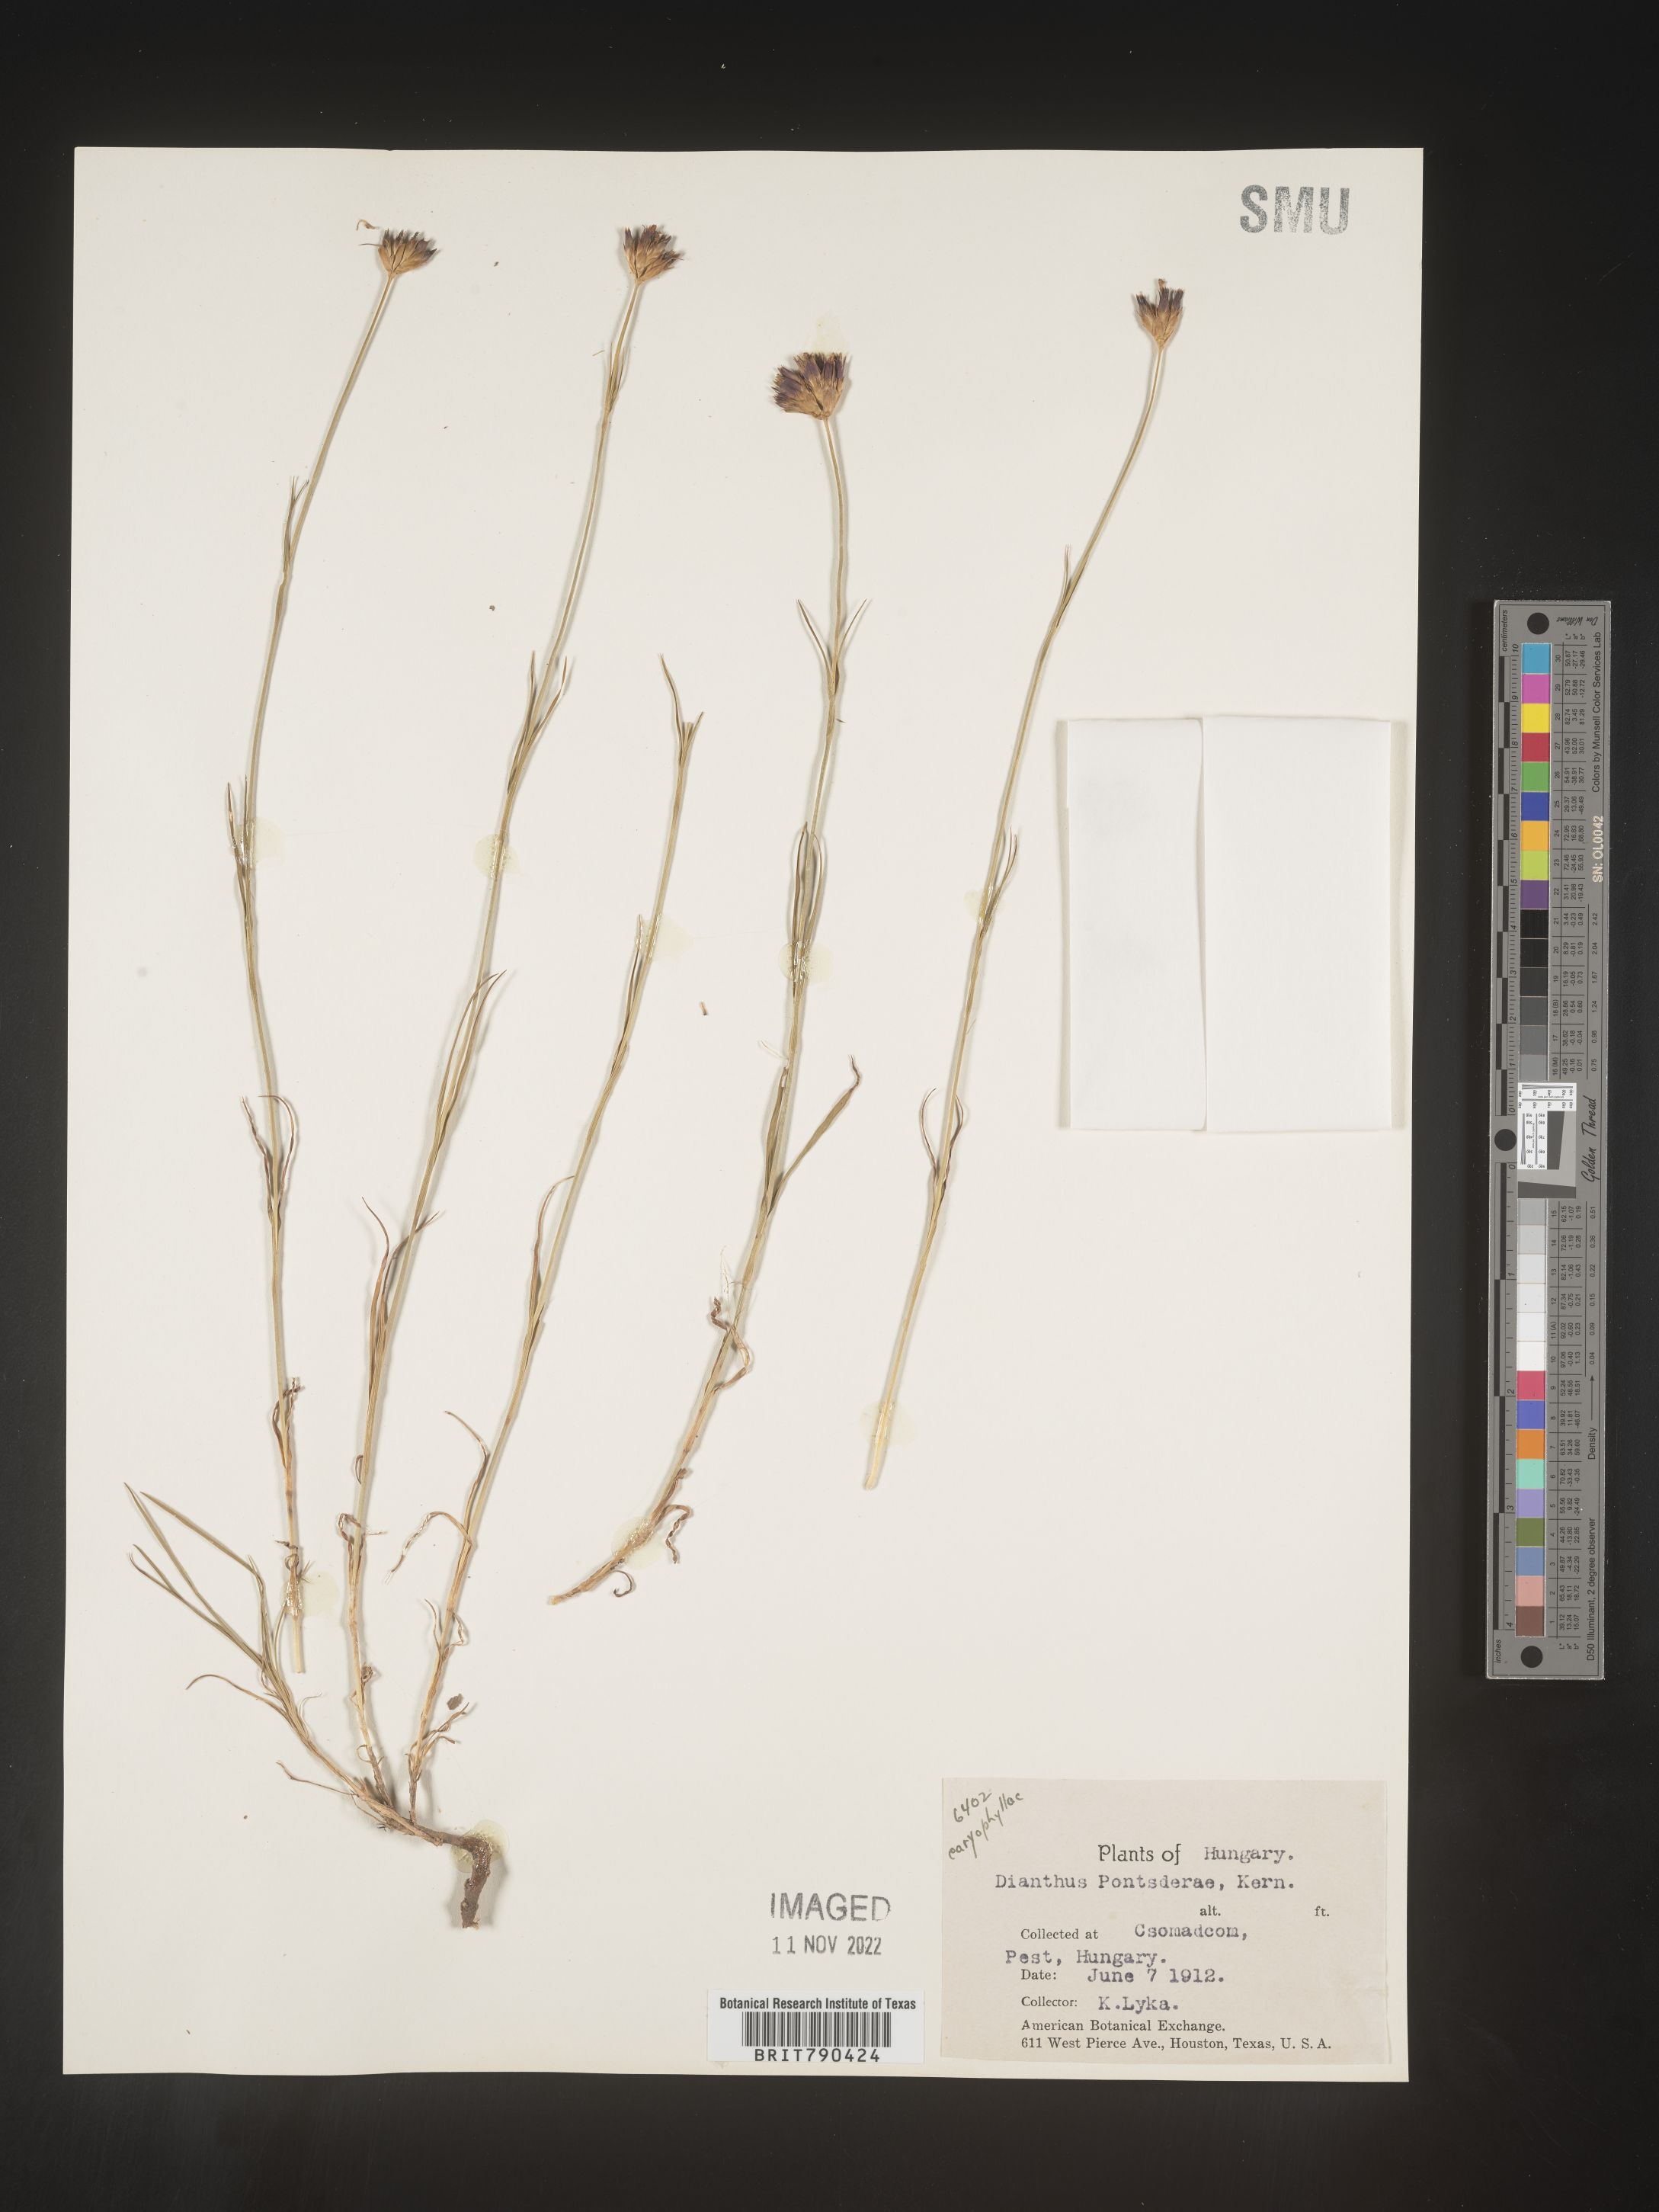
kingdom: Plantae
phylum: Tracheophyta
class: Magnoliopsida
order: Caryophyllales
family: Caryophyllaceae
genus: Dianthus
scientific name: Dianthus
